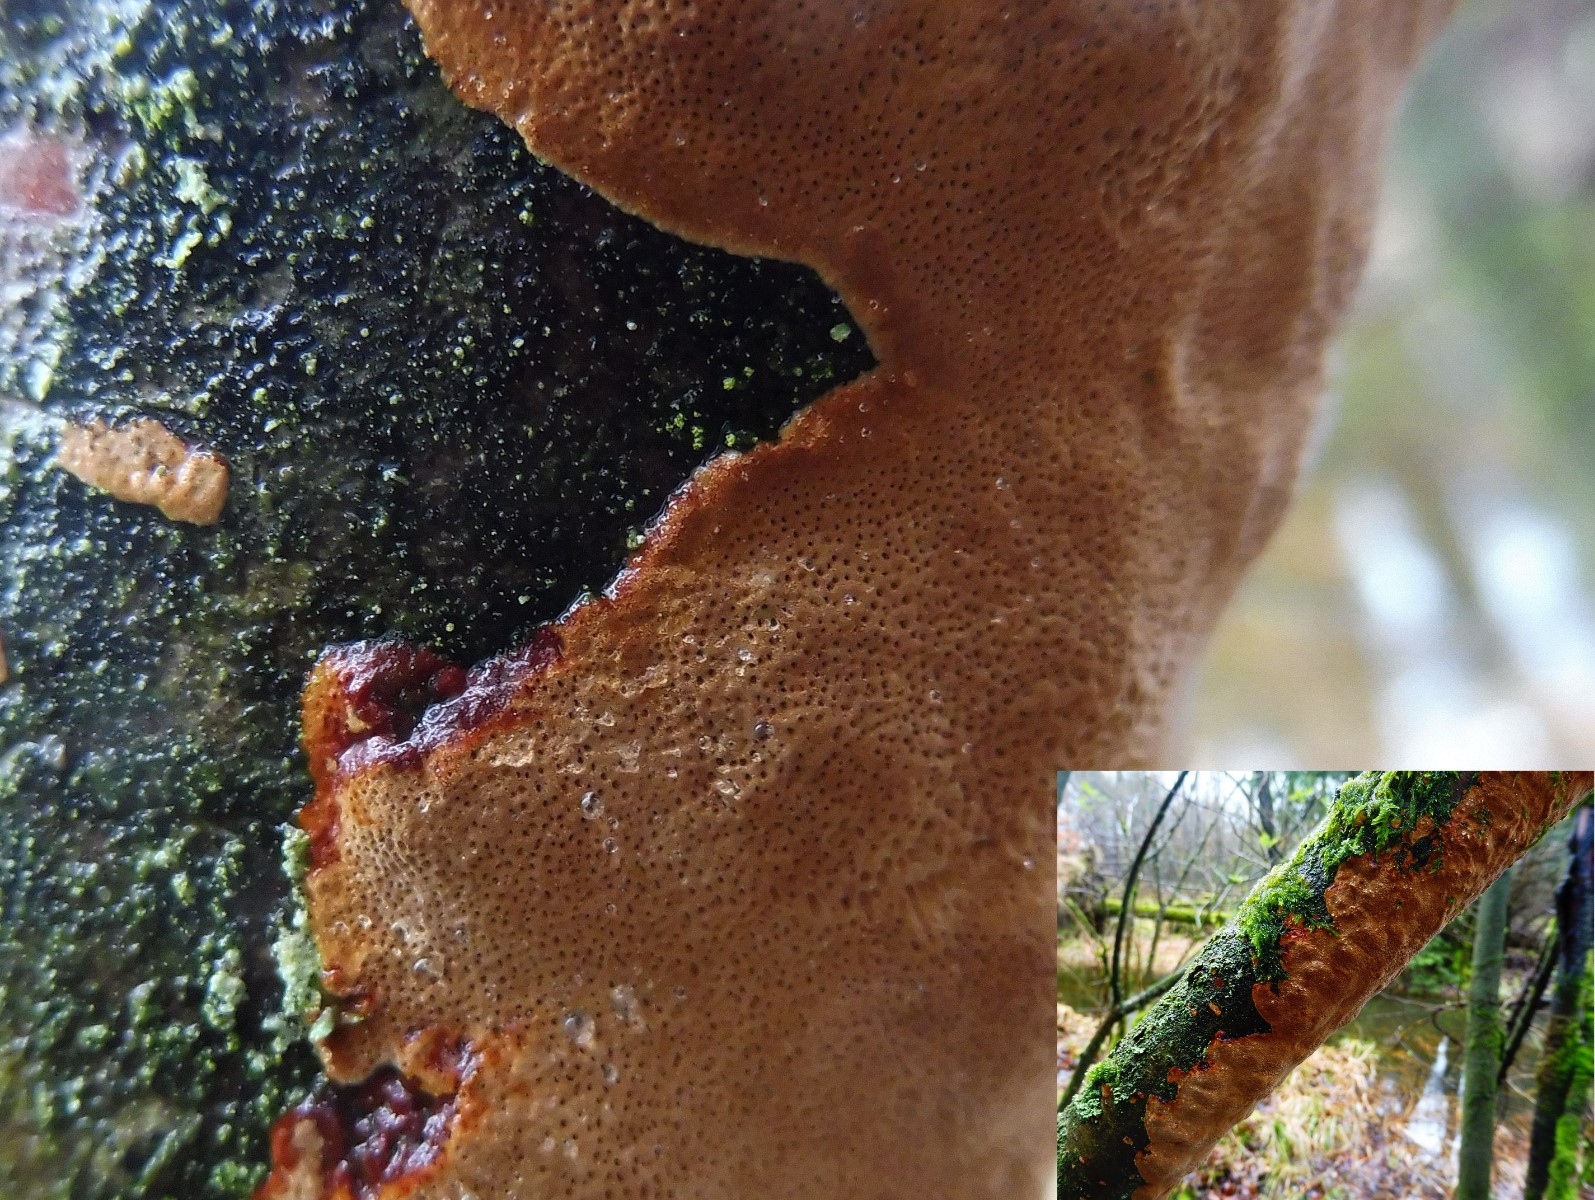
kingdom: Fungi
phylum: Basidiomycota
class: Agaricomycetes
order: Hymenochaetales
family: Hymenochaetaceae
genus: Fuscoporia
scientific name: Fuscoporia ferrea
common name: skorpe-ildporesvamp
